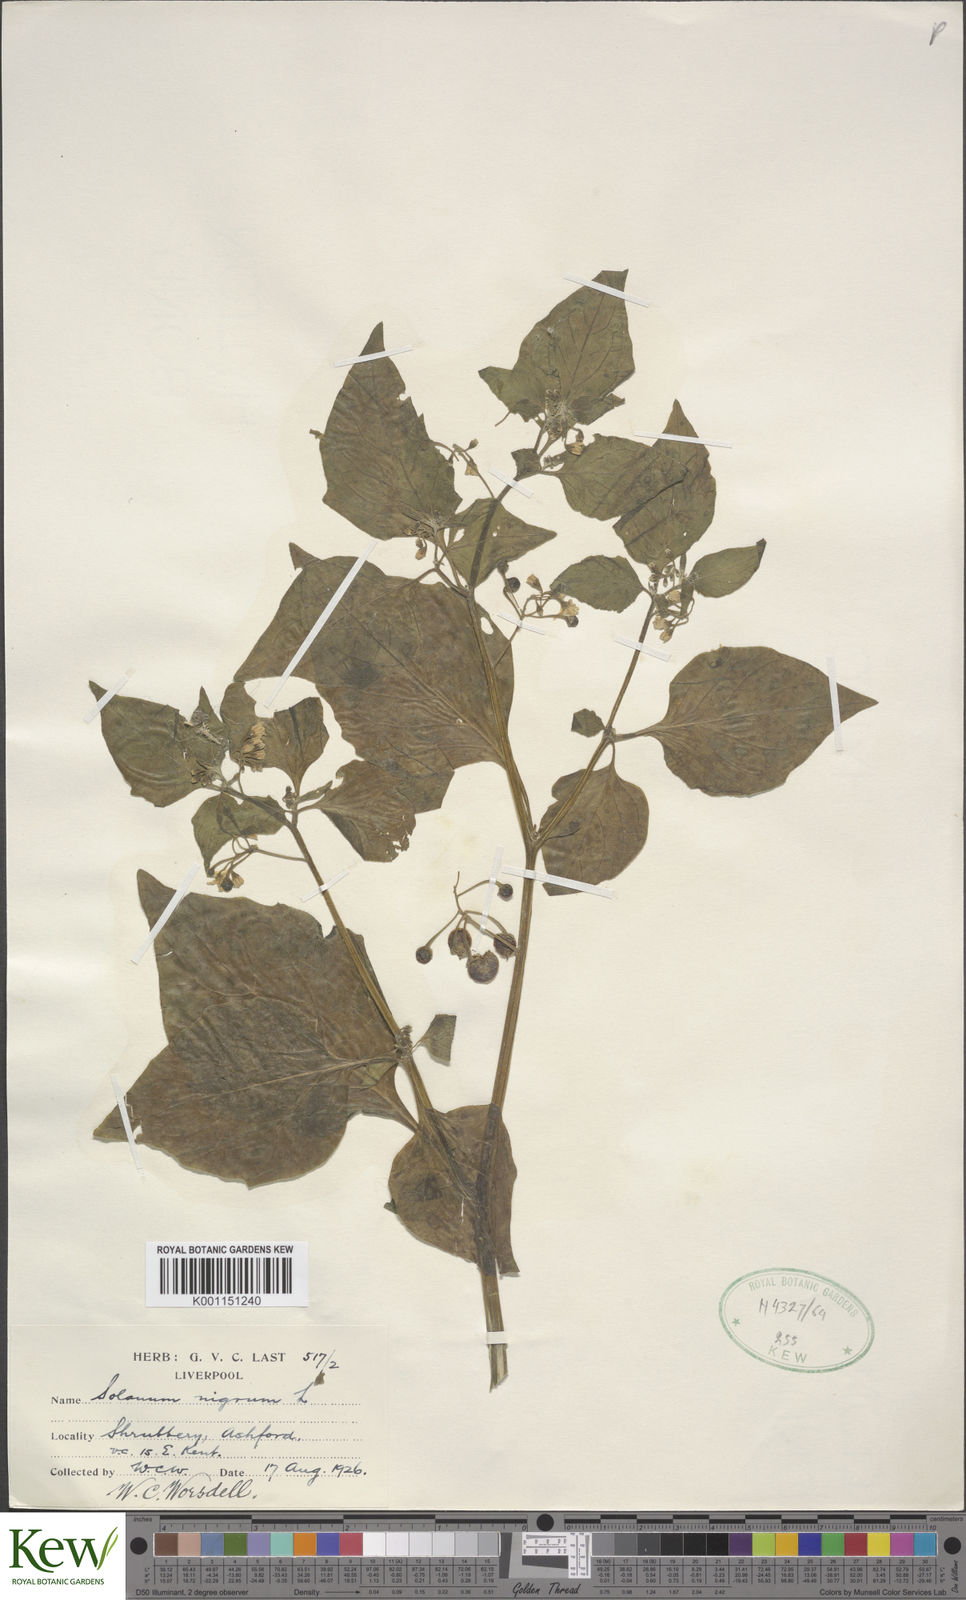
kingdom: Plantae
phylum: Tracheophyta
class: Magnoliopsida
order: Solanales
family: Solanaceae
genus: Solanum
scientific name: Solanum nigrum
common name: Black nightshade
